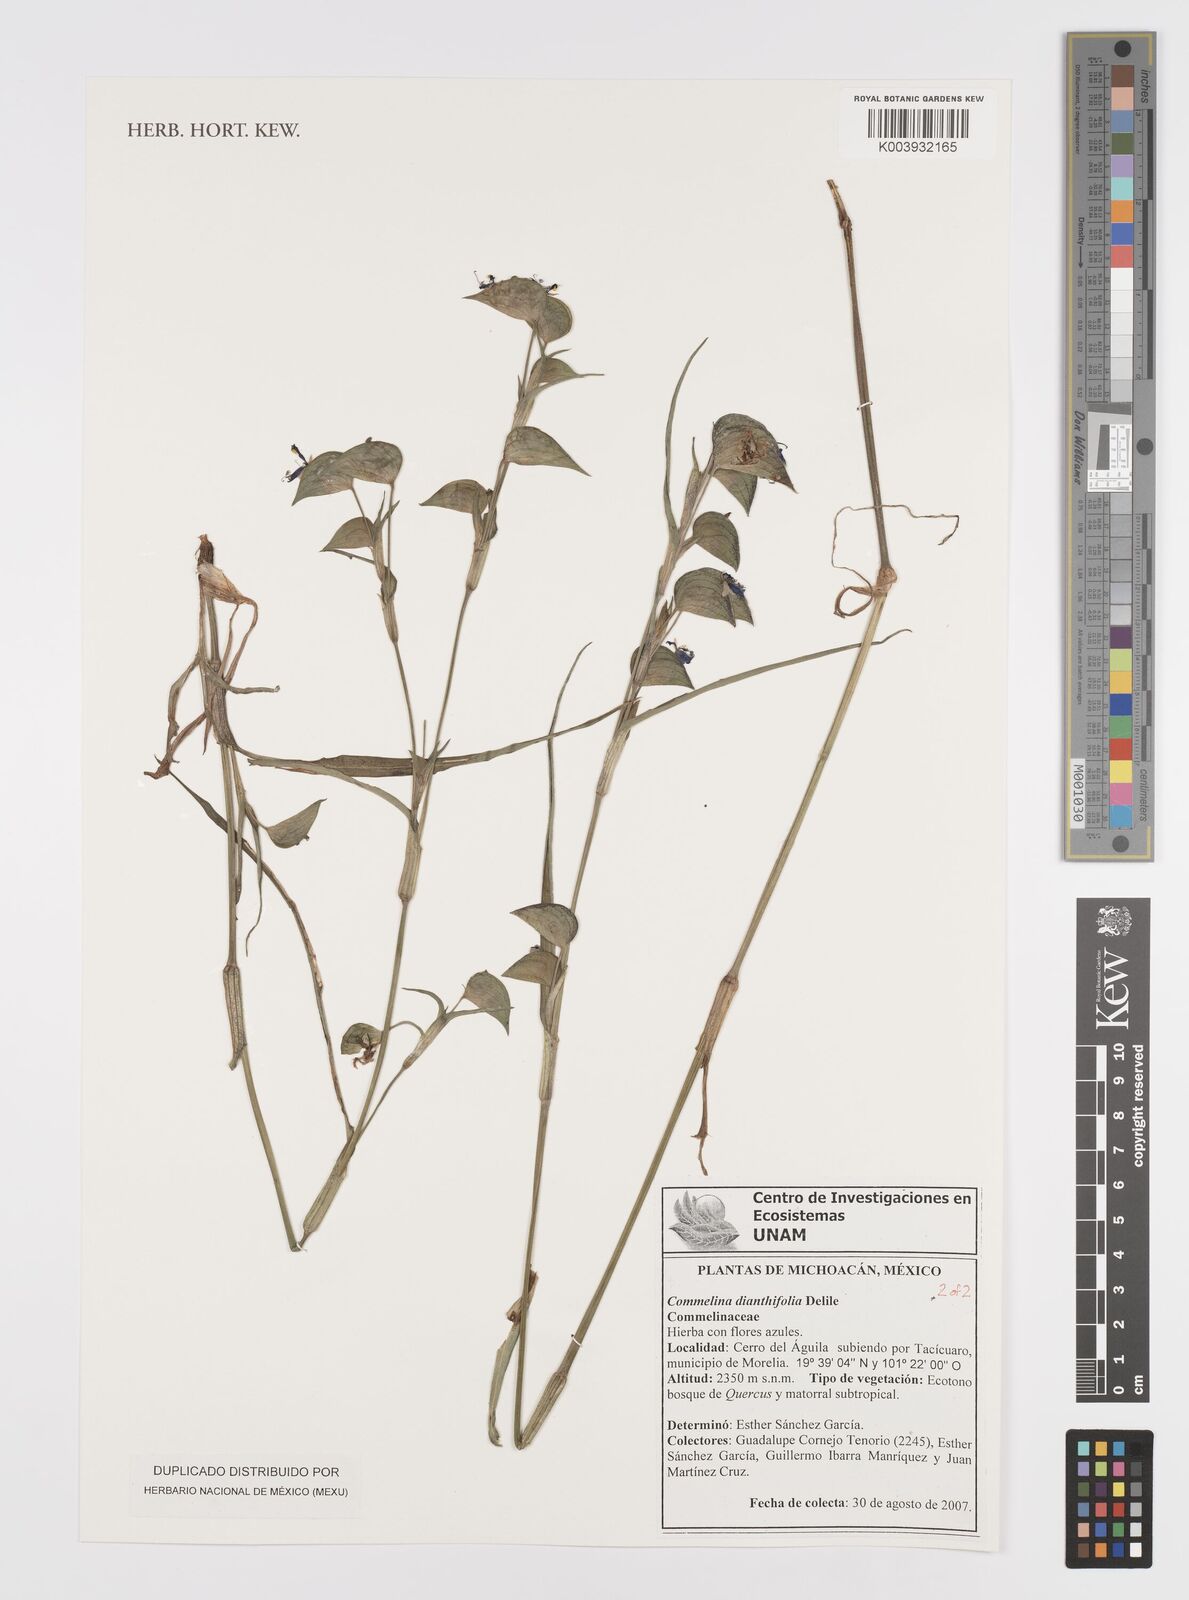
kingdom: Plantae
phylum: Tracheophyta
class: Liliopsida
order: Commelinales
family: Commelinaceae
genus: Commelina
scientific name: Commelina dianthifolia
